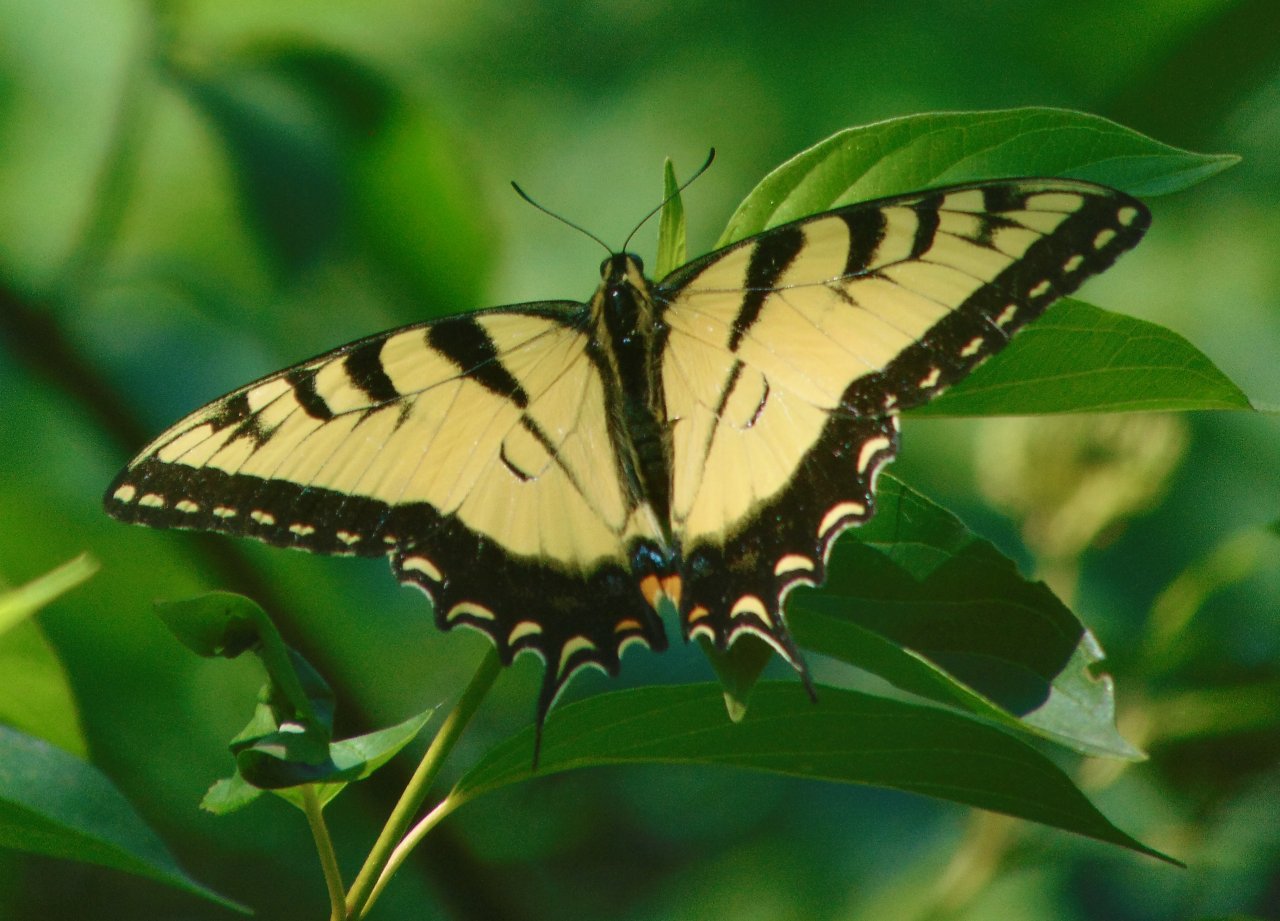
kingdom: Animalia
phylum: Arthropoda
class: Insecta
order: Lepidoptera
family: Papilionidae
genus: Pterourus
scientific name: Pterourus glaucus
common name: Eastern Tiger Swallowtail
